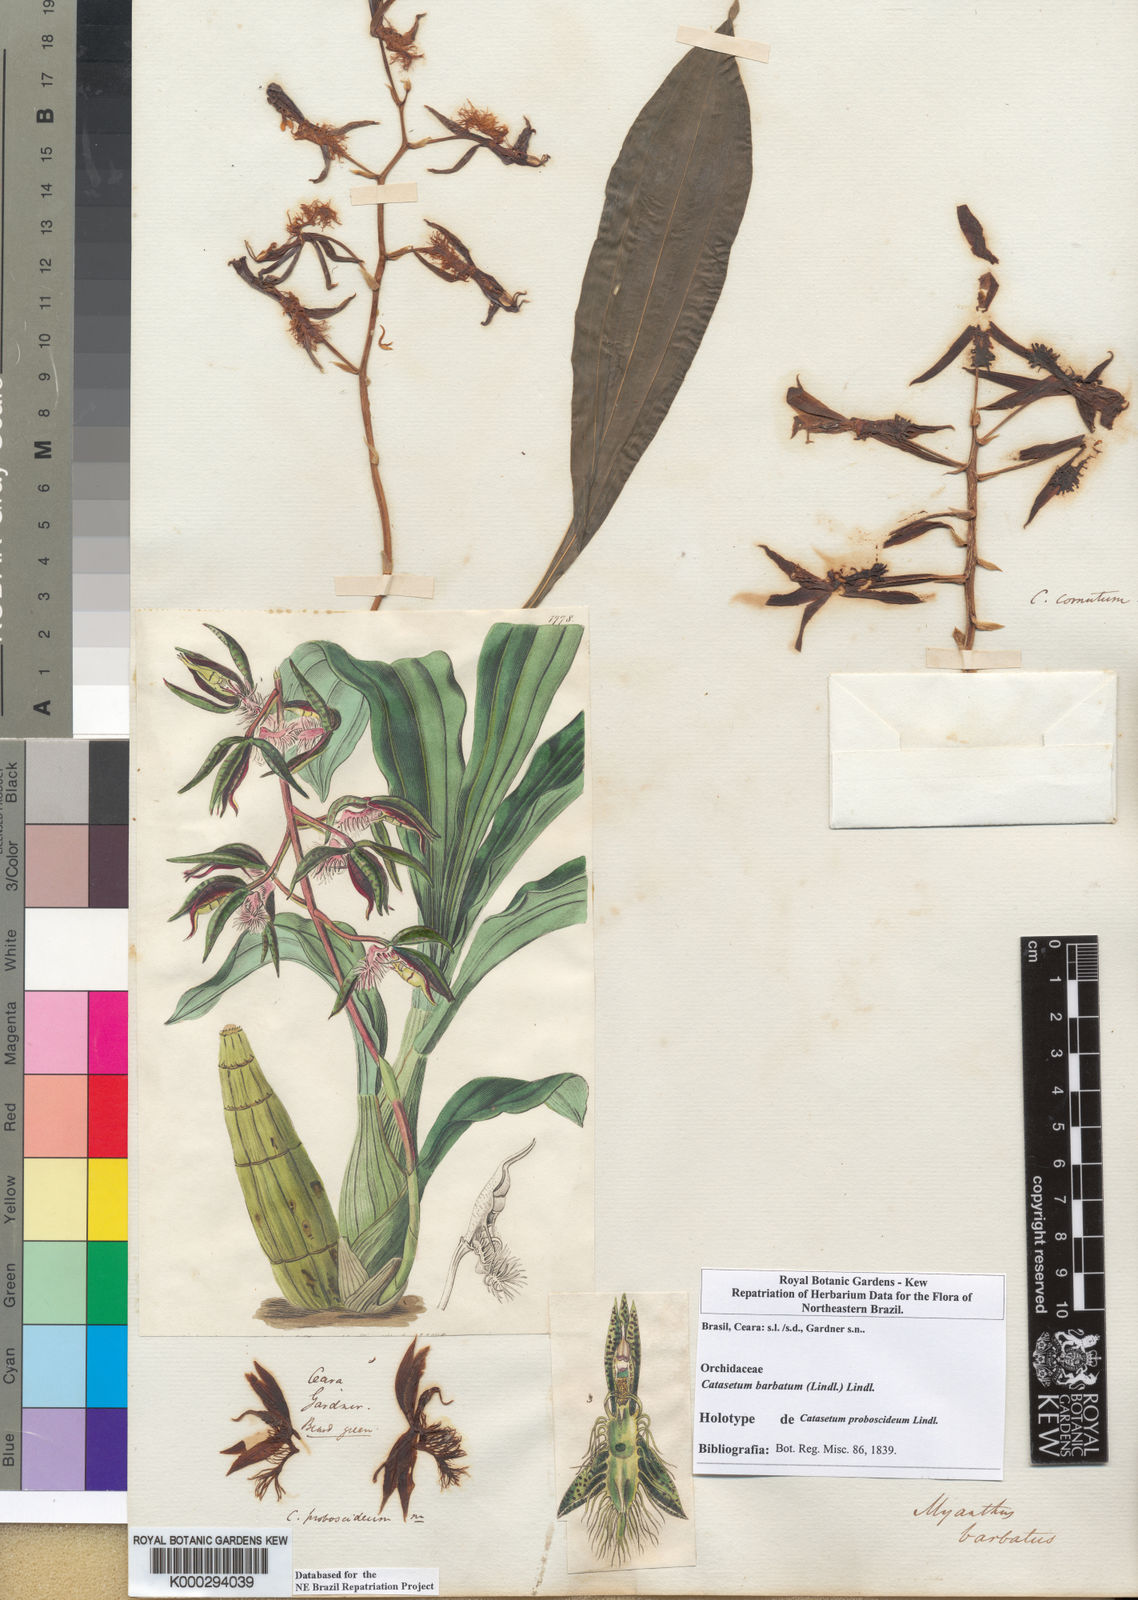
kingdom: Plantae
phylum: Tracheophyta
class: Liliopsida
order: Asparagales
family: Orchidaceae
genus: Catasetum
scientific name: Catasetum barbatum
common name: Bearded catasetum
